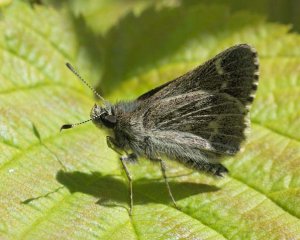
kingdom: Animalia
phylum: Arthropoda
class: Insecta
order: Lepidoptera
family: Hesperiidae
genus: Mastor
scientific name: Mastor hegon
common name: Pepper and Salt Skipper
